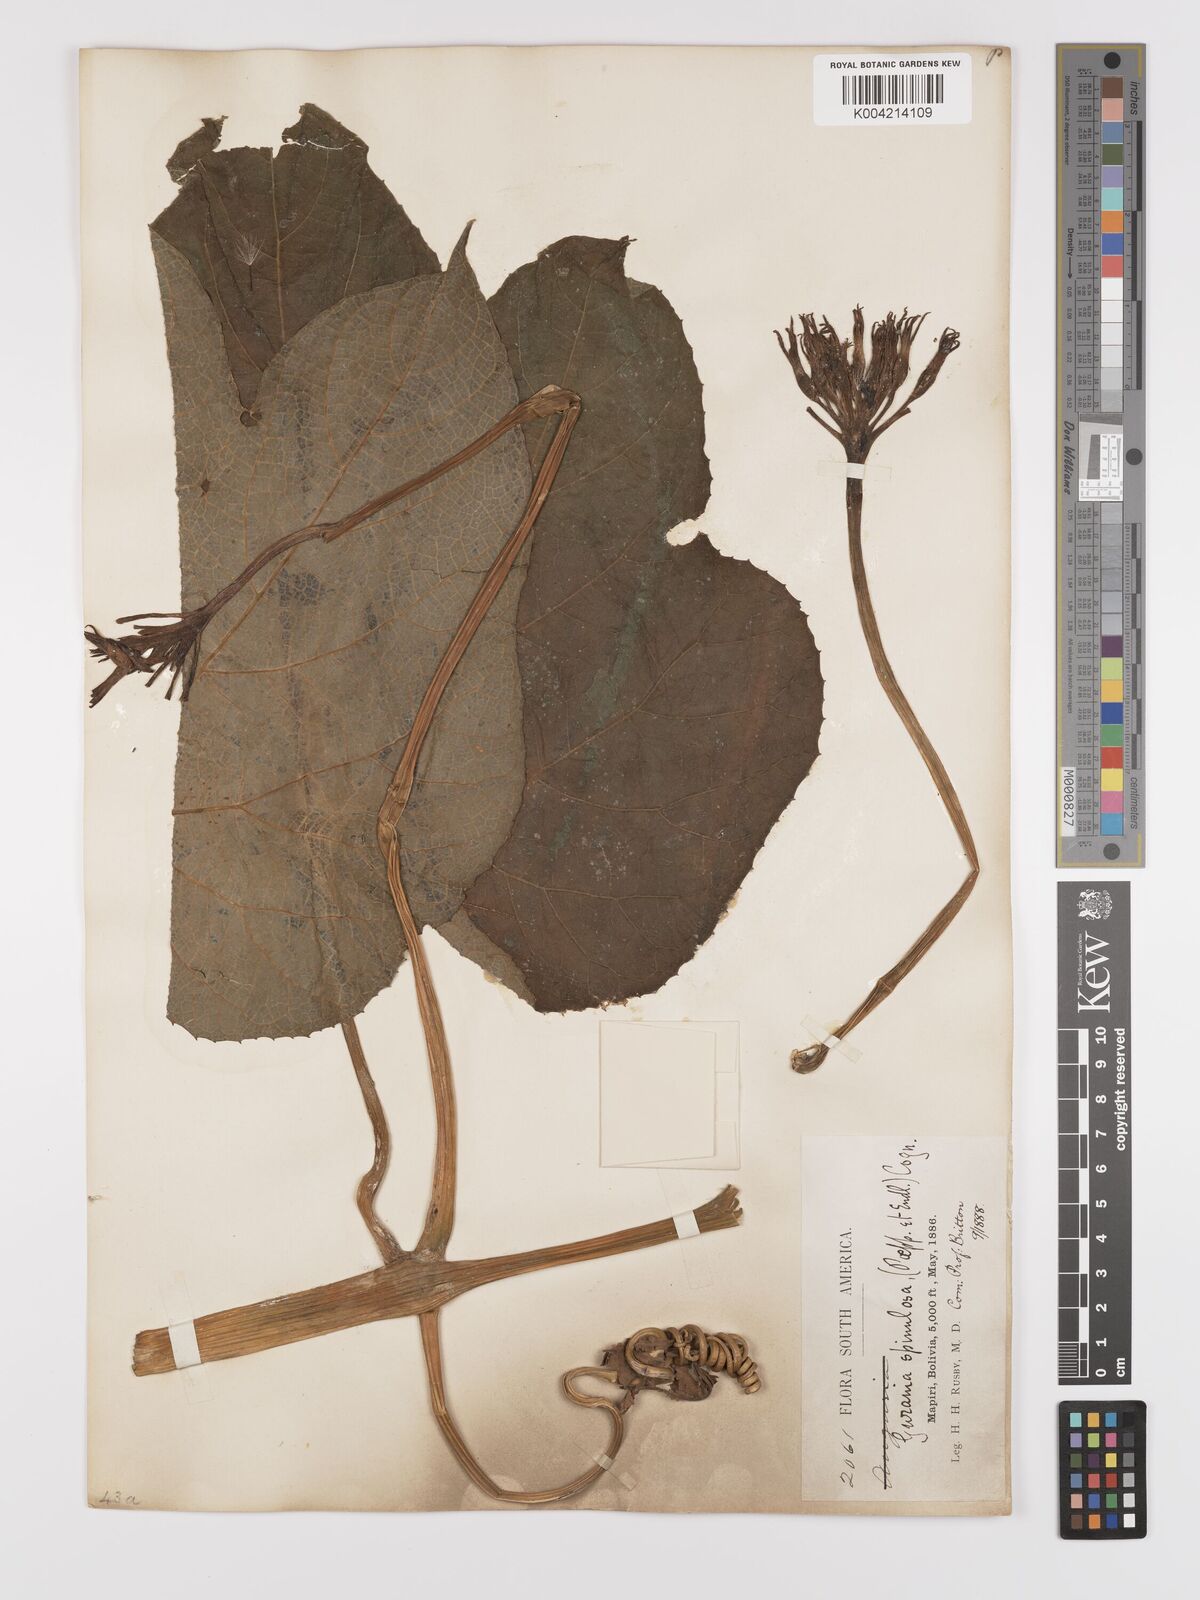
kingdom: Plantae
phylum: Tracheophyta
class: Magnoliopsida
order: Cucurbitales
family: Cucurbitaceae
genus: Gurania
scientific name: Gurania lobata
